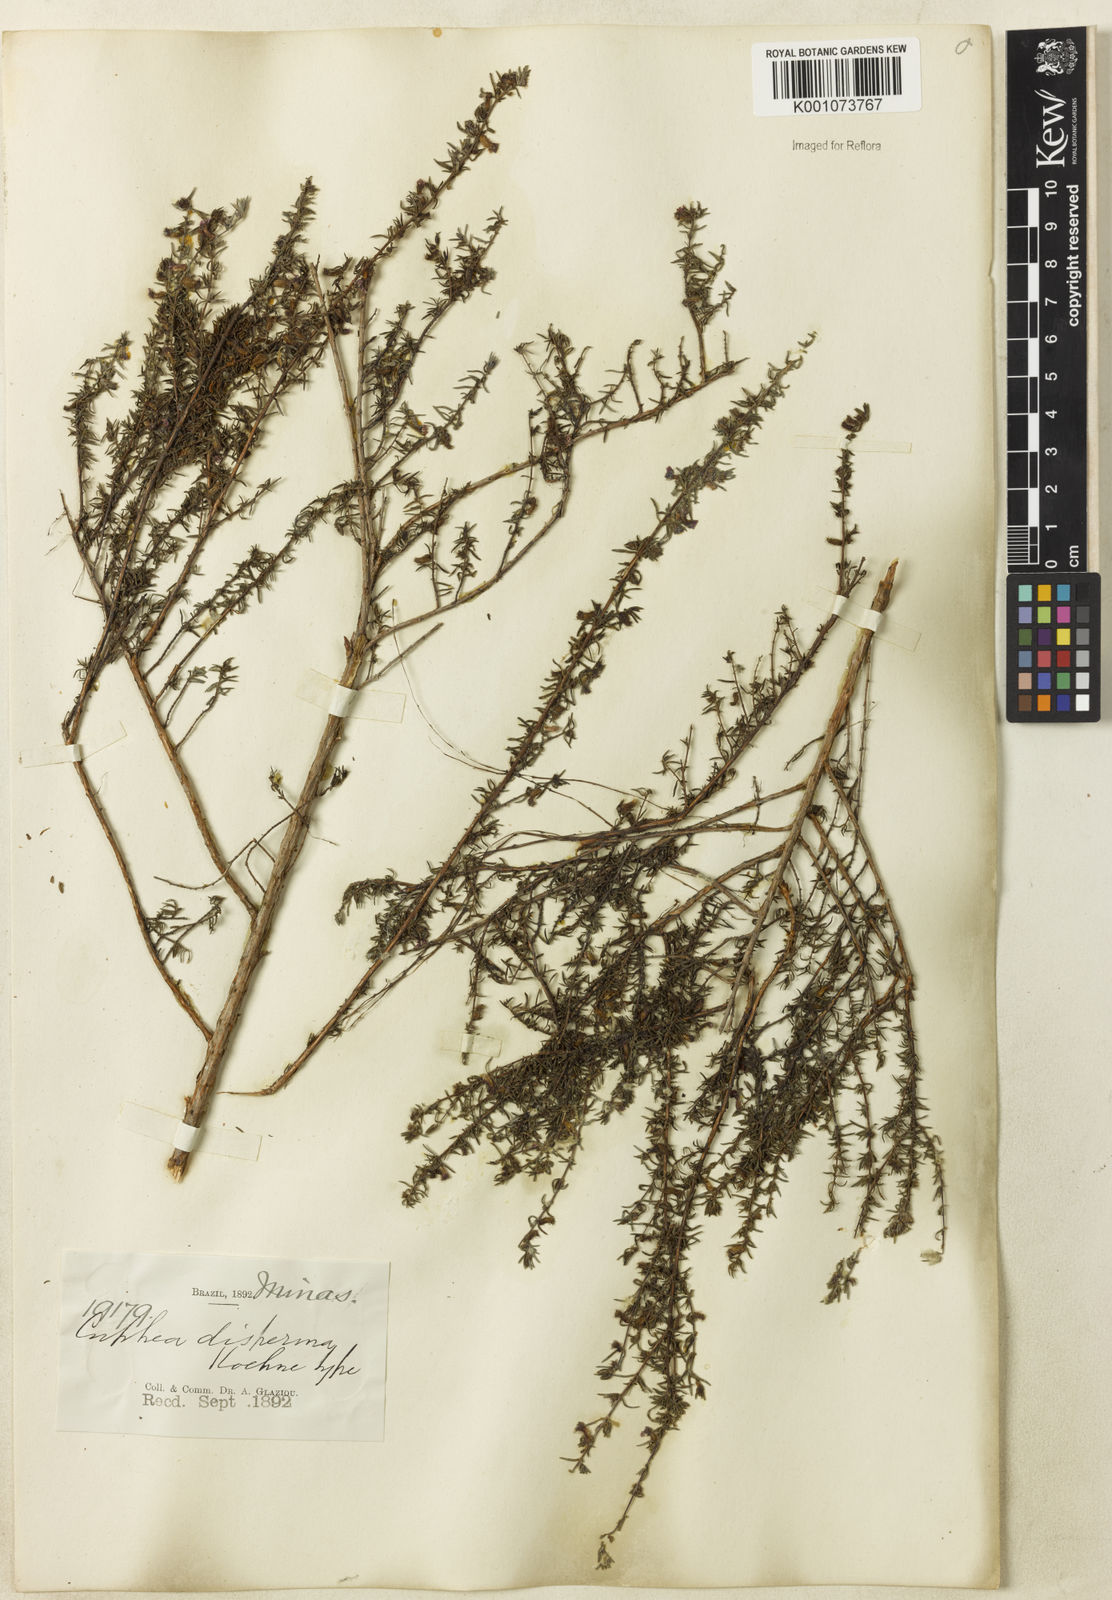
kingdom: Plantae
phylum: Tracheophyta
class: Magnoliopsida
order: Myrtales
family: Lythraceae
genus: Cuphea
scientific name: Cuphea disperma
